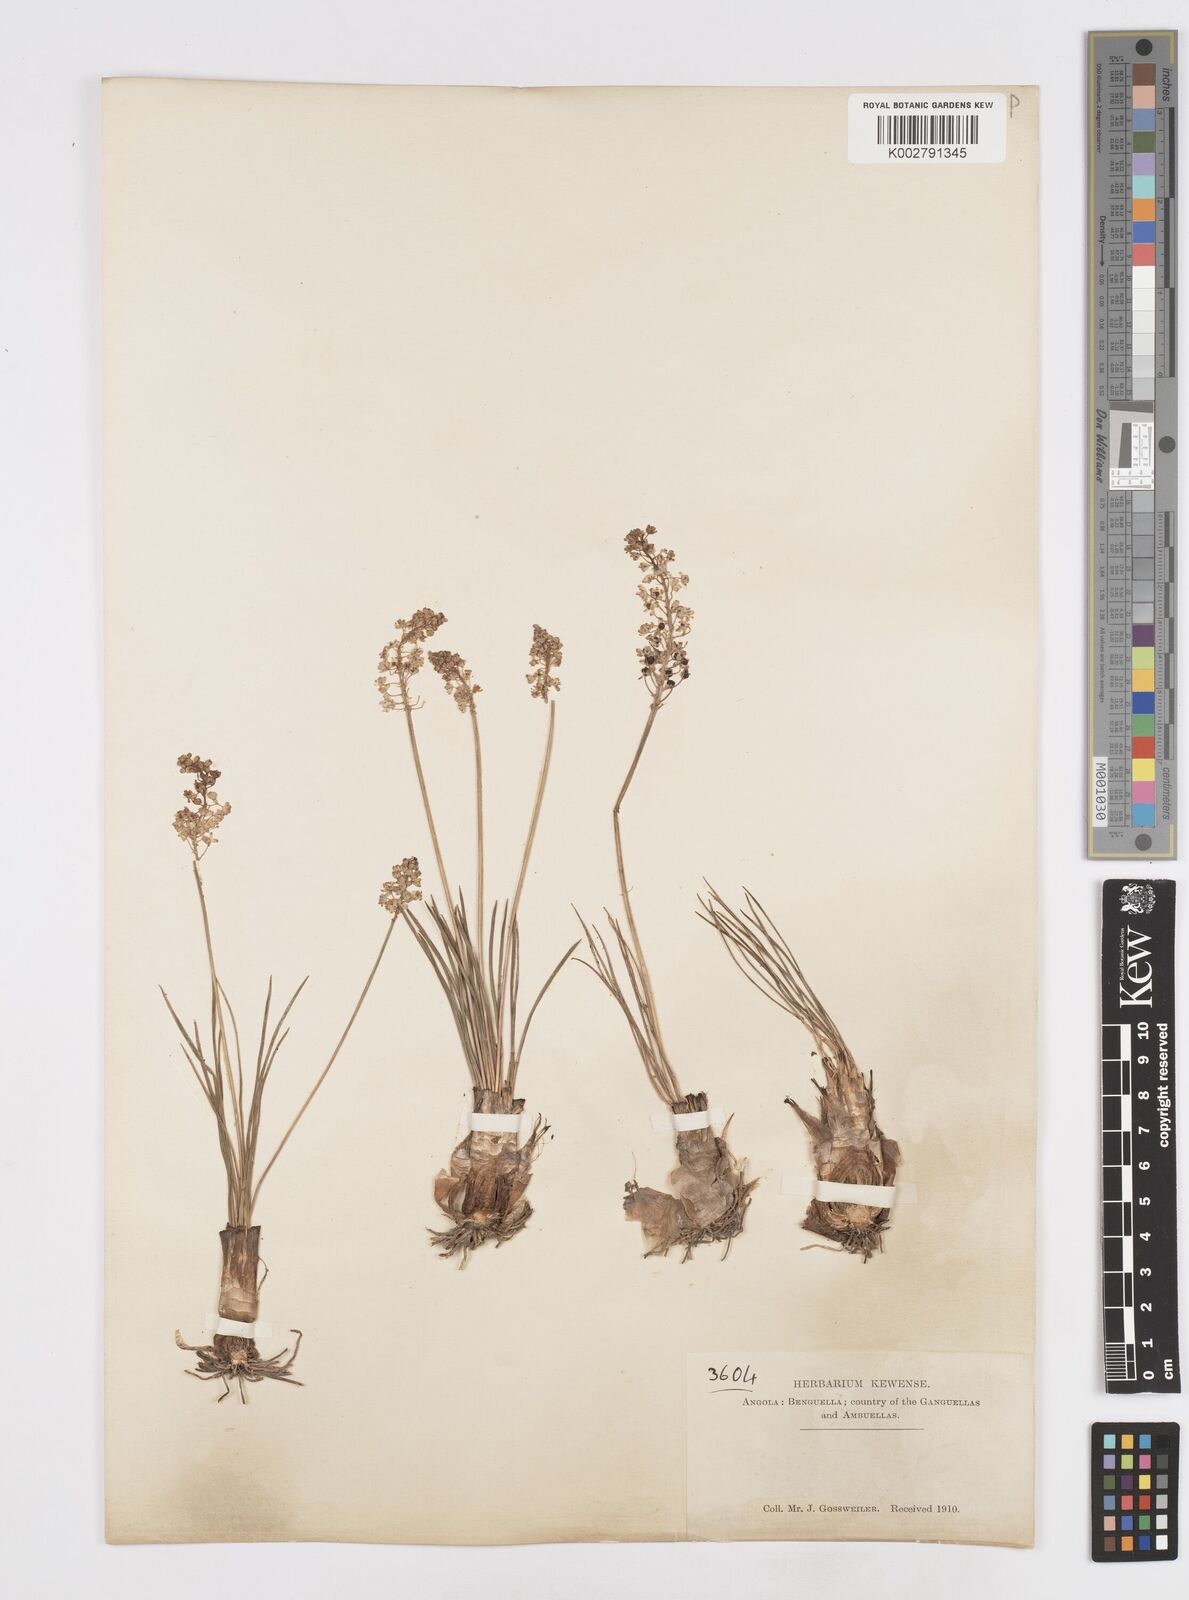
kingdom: Plantae
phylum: Tracheophyta
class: Liliopsida
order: Asparagales
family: Asparagaceae
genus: Scilla
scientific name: Scilla welwitschii
